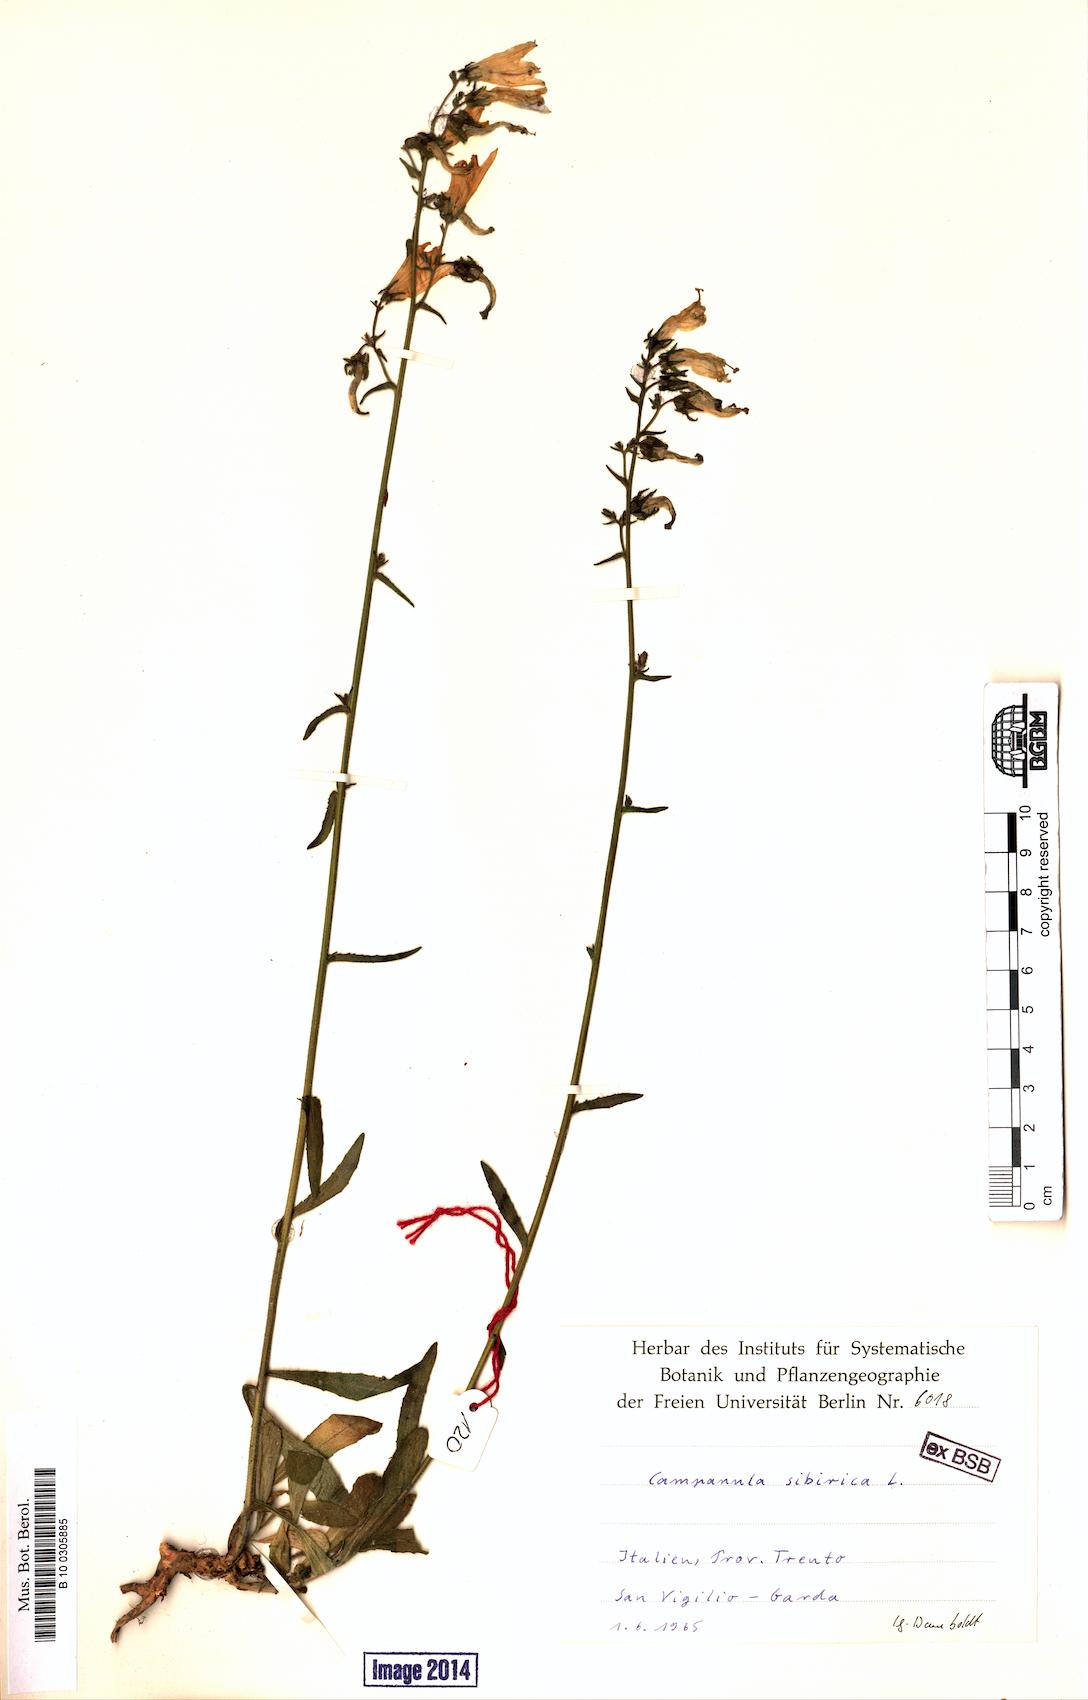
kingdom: Plantae
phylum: Tracheophyta
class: Magnoliopsida
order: Asterales
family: Campanulaceae
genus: Campanula
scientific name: Campanula sibirica
